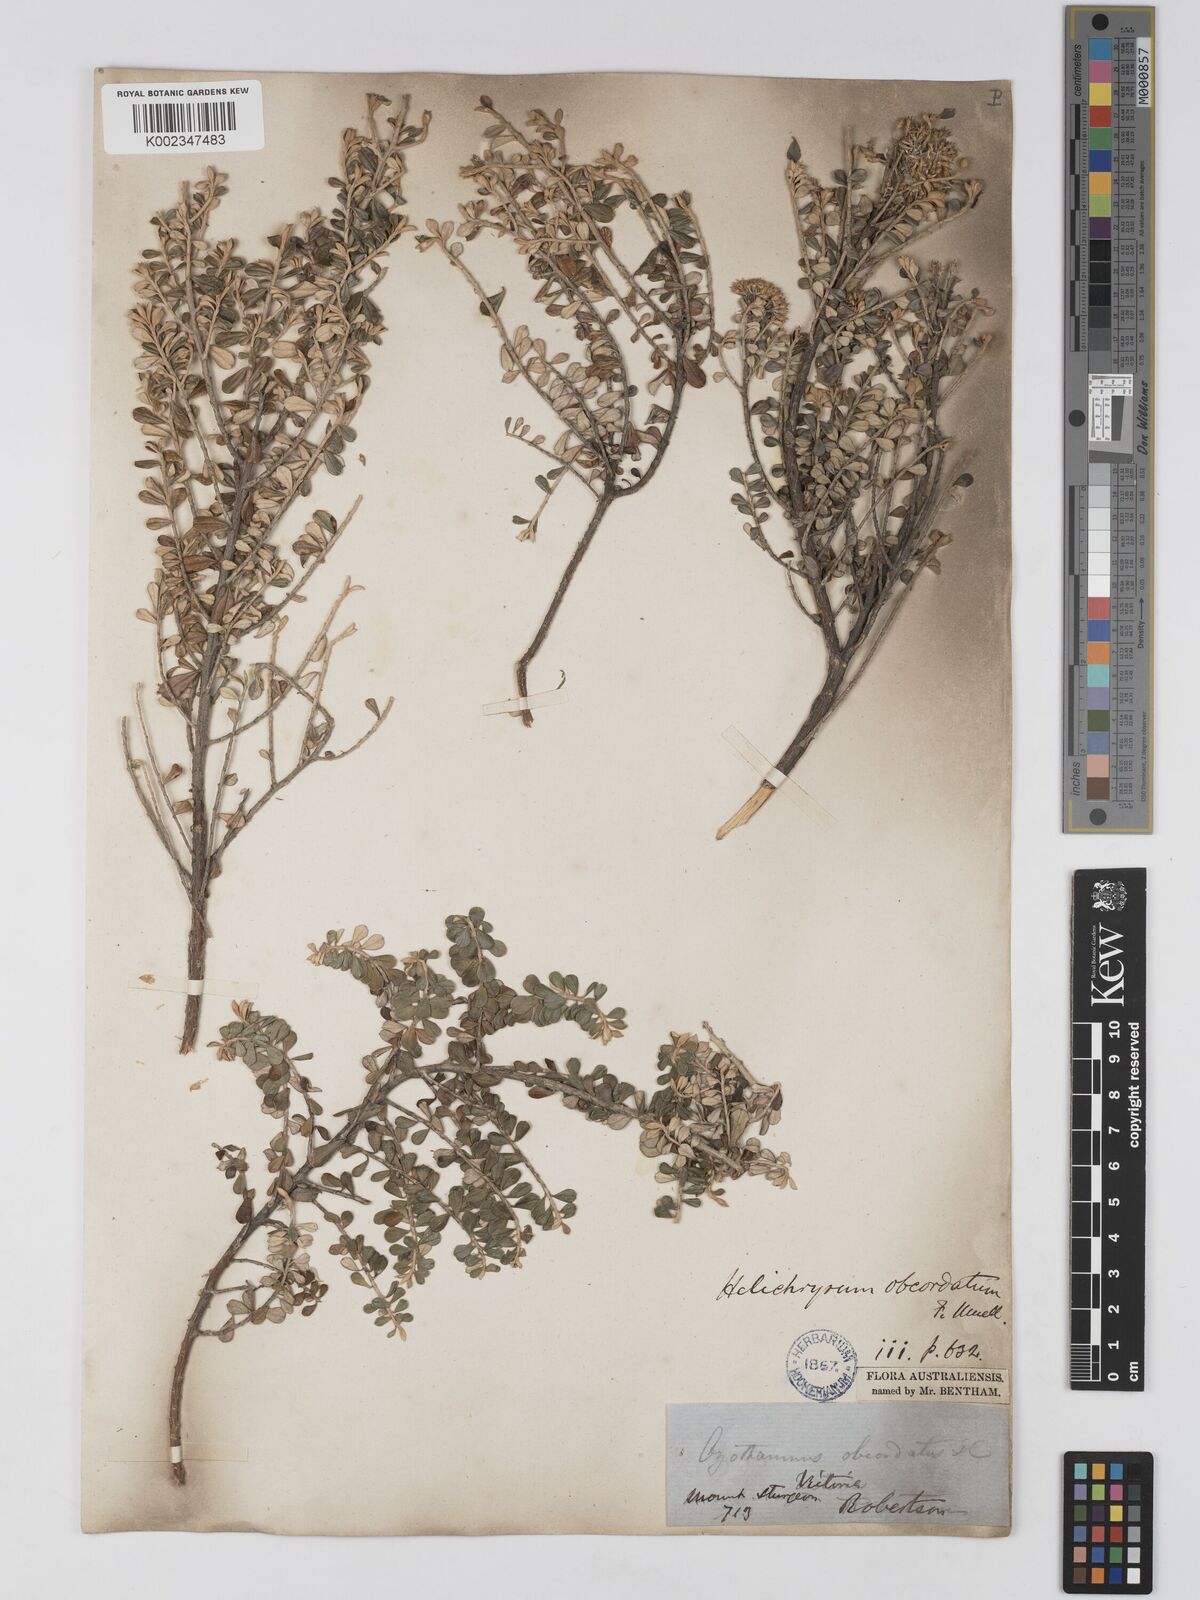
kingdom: Plantae
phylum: Tracheophyta
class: Magnoliopsida
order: Asterales
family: Asteraceae
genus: Ozothamnus
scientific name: Ozothamnus
